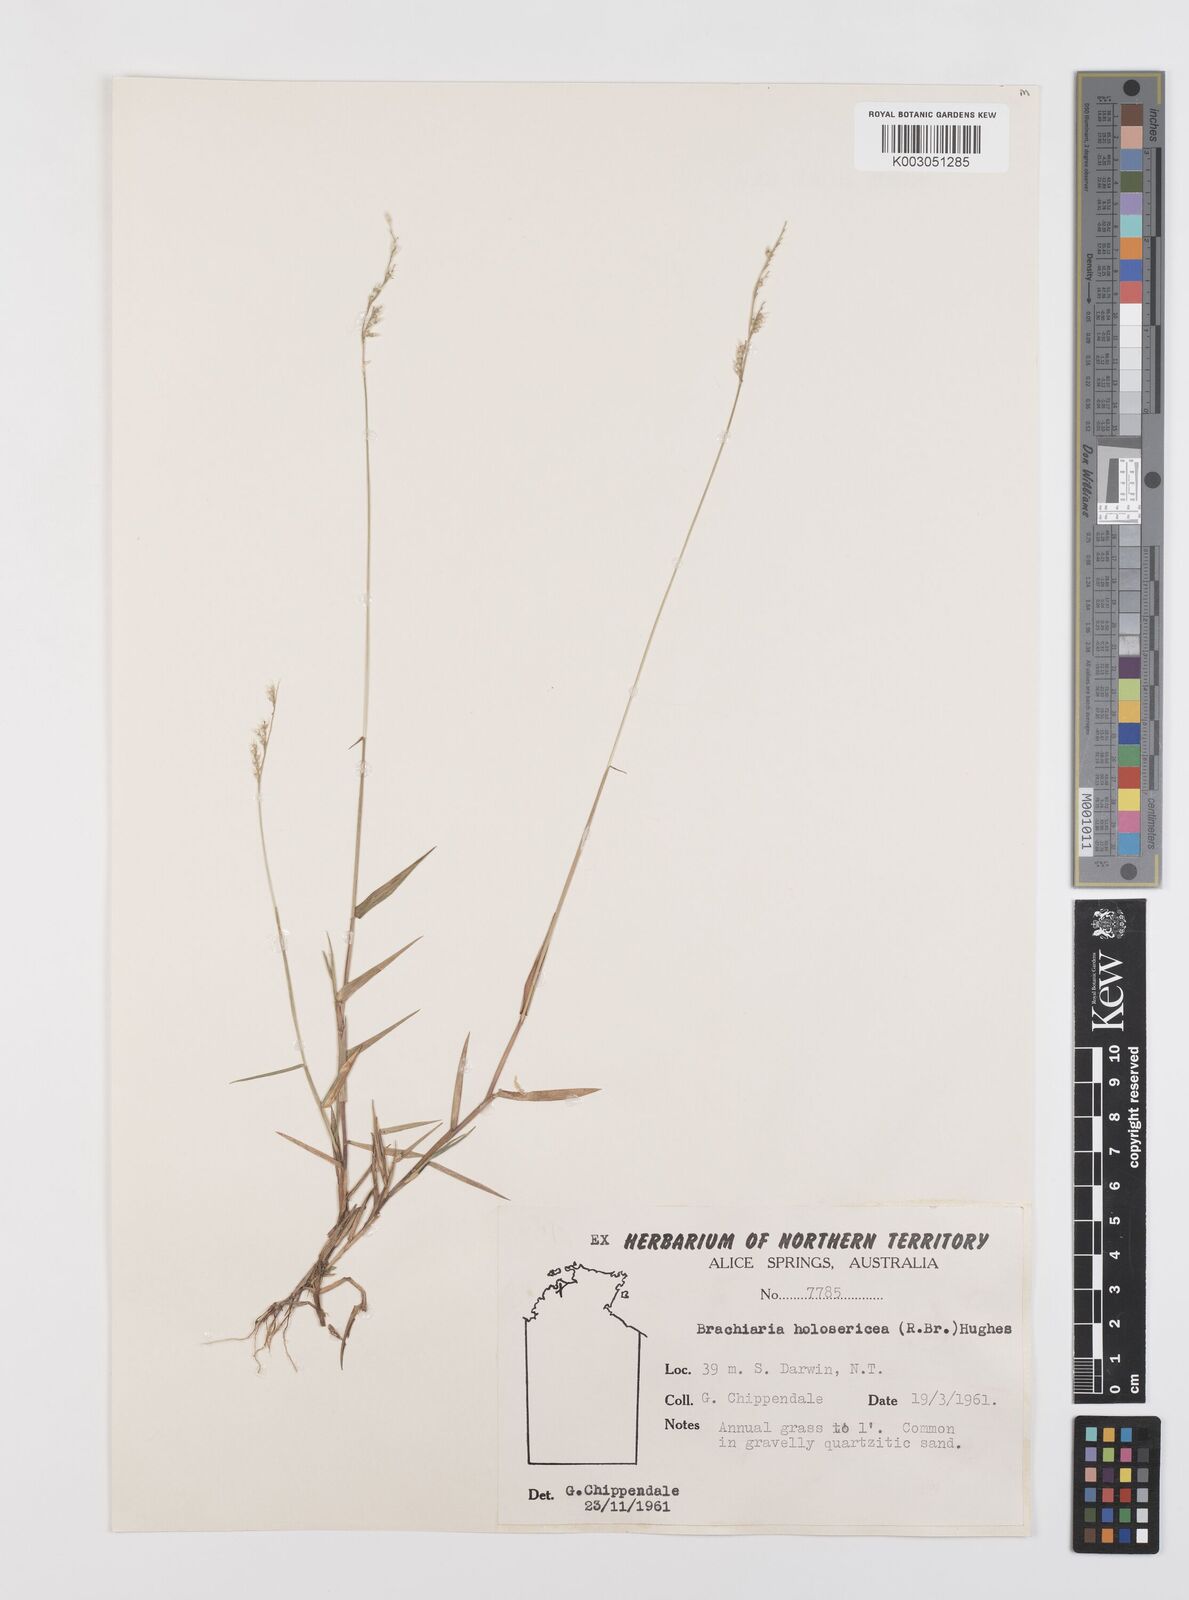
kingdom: Plantae
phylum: Tracheophyta
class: Liliopsida
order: Poales
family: Poaceae
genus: Urochloa
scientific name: Urochloa holosericea
